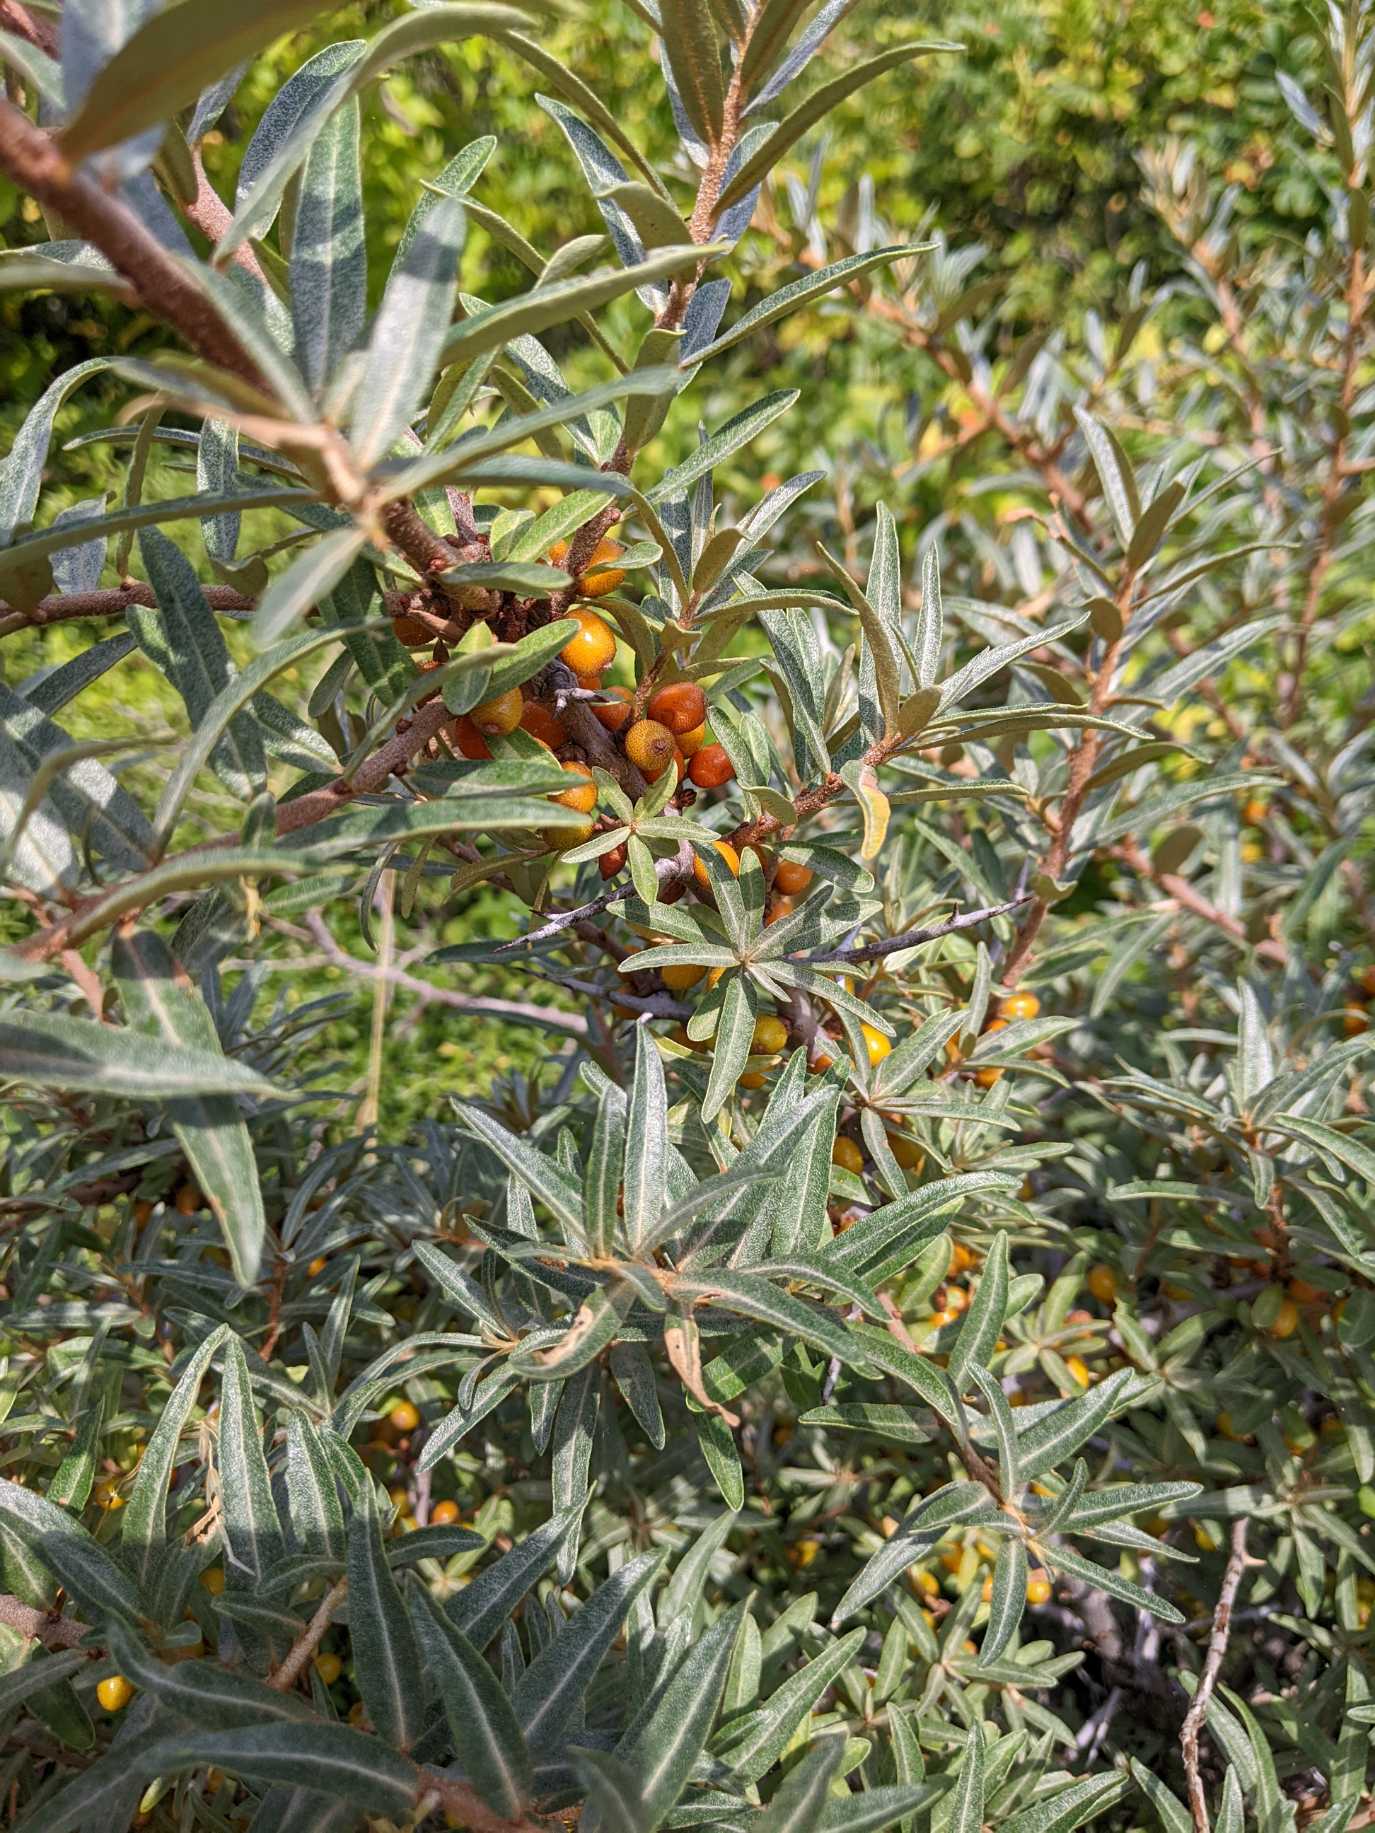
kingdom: Plantae
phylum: Tracheophyta
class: Magnoliopsida
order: Rosales
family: Elaeagnaceae
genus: Hippophae
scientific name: Hippophae rhamnoides
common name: Havtorn
